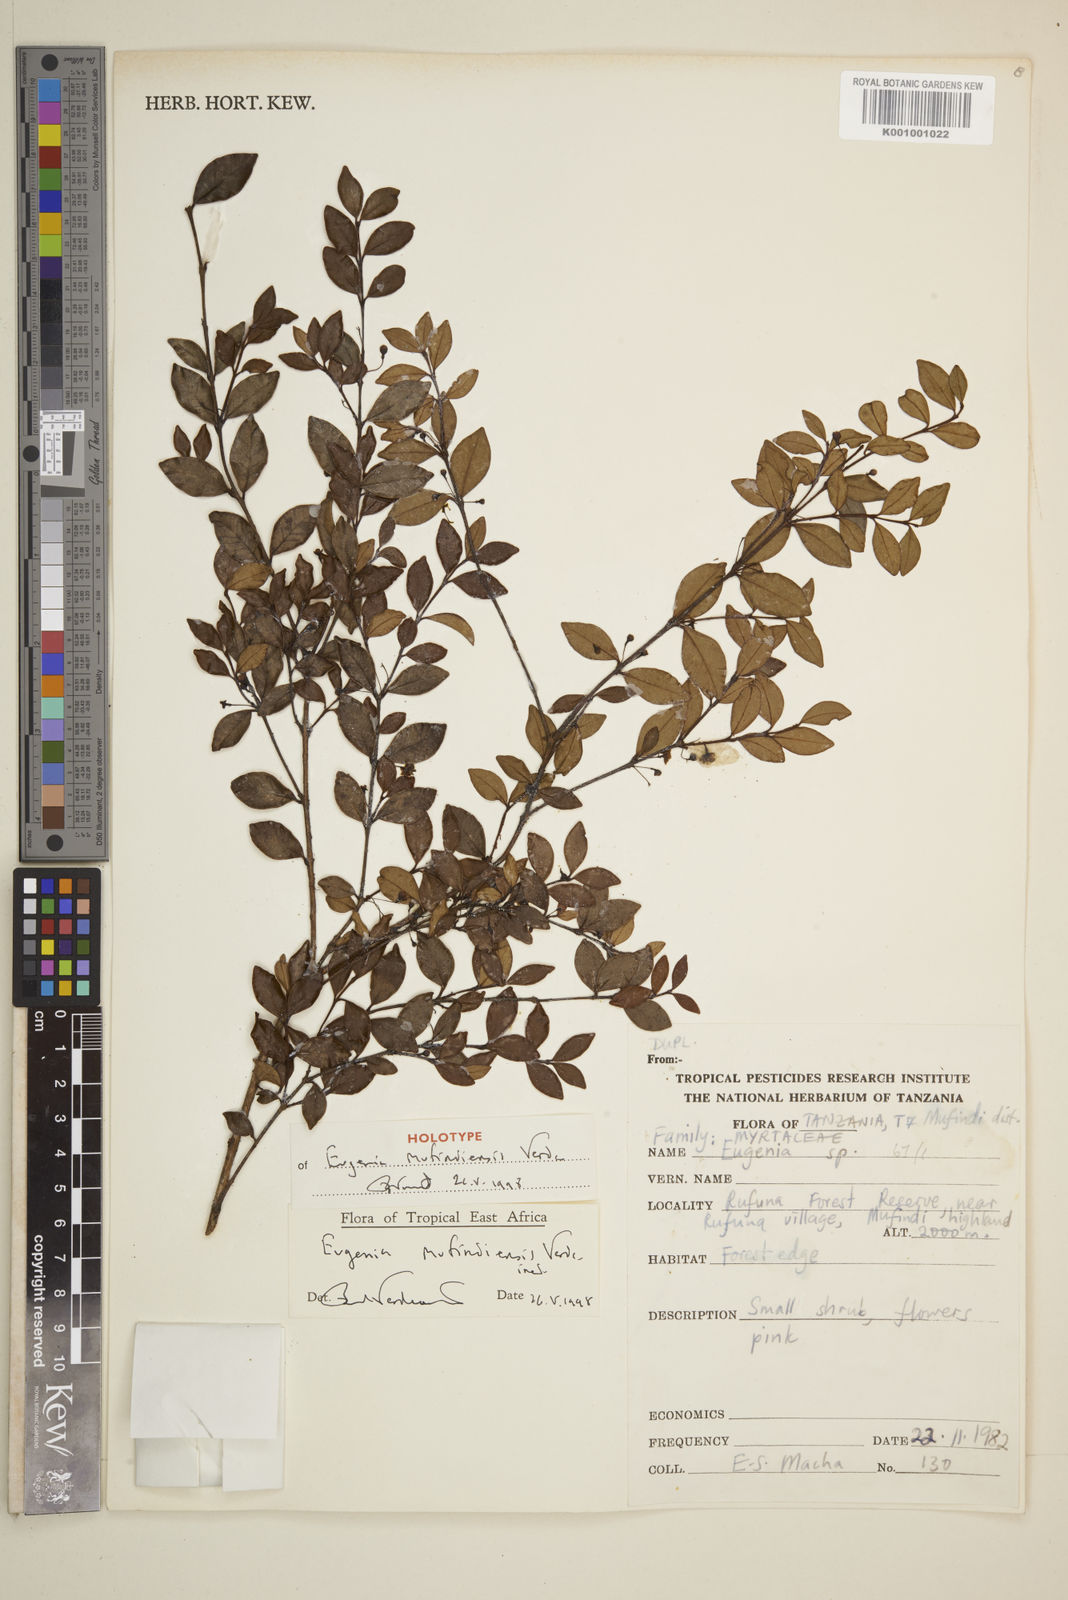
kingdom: Plantae
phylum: Tracheophyta
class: Magnoliopsida
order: Myrtales
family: Myrtaceae
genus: Eugenia
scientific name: Eugenia mufindiensis
